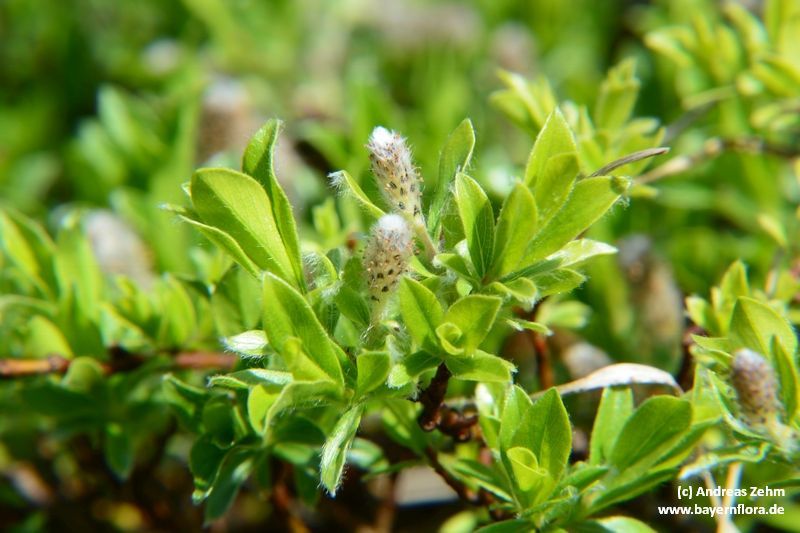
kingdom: Plantae
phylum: Tracheophyta
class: Magnoliopsida
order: Malpighiales
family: Salicaceae
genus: Salix
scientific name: Salix alpina
